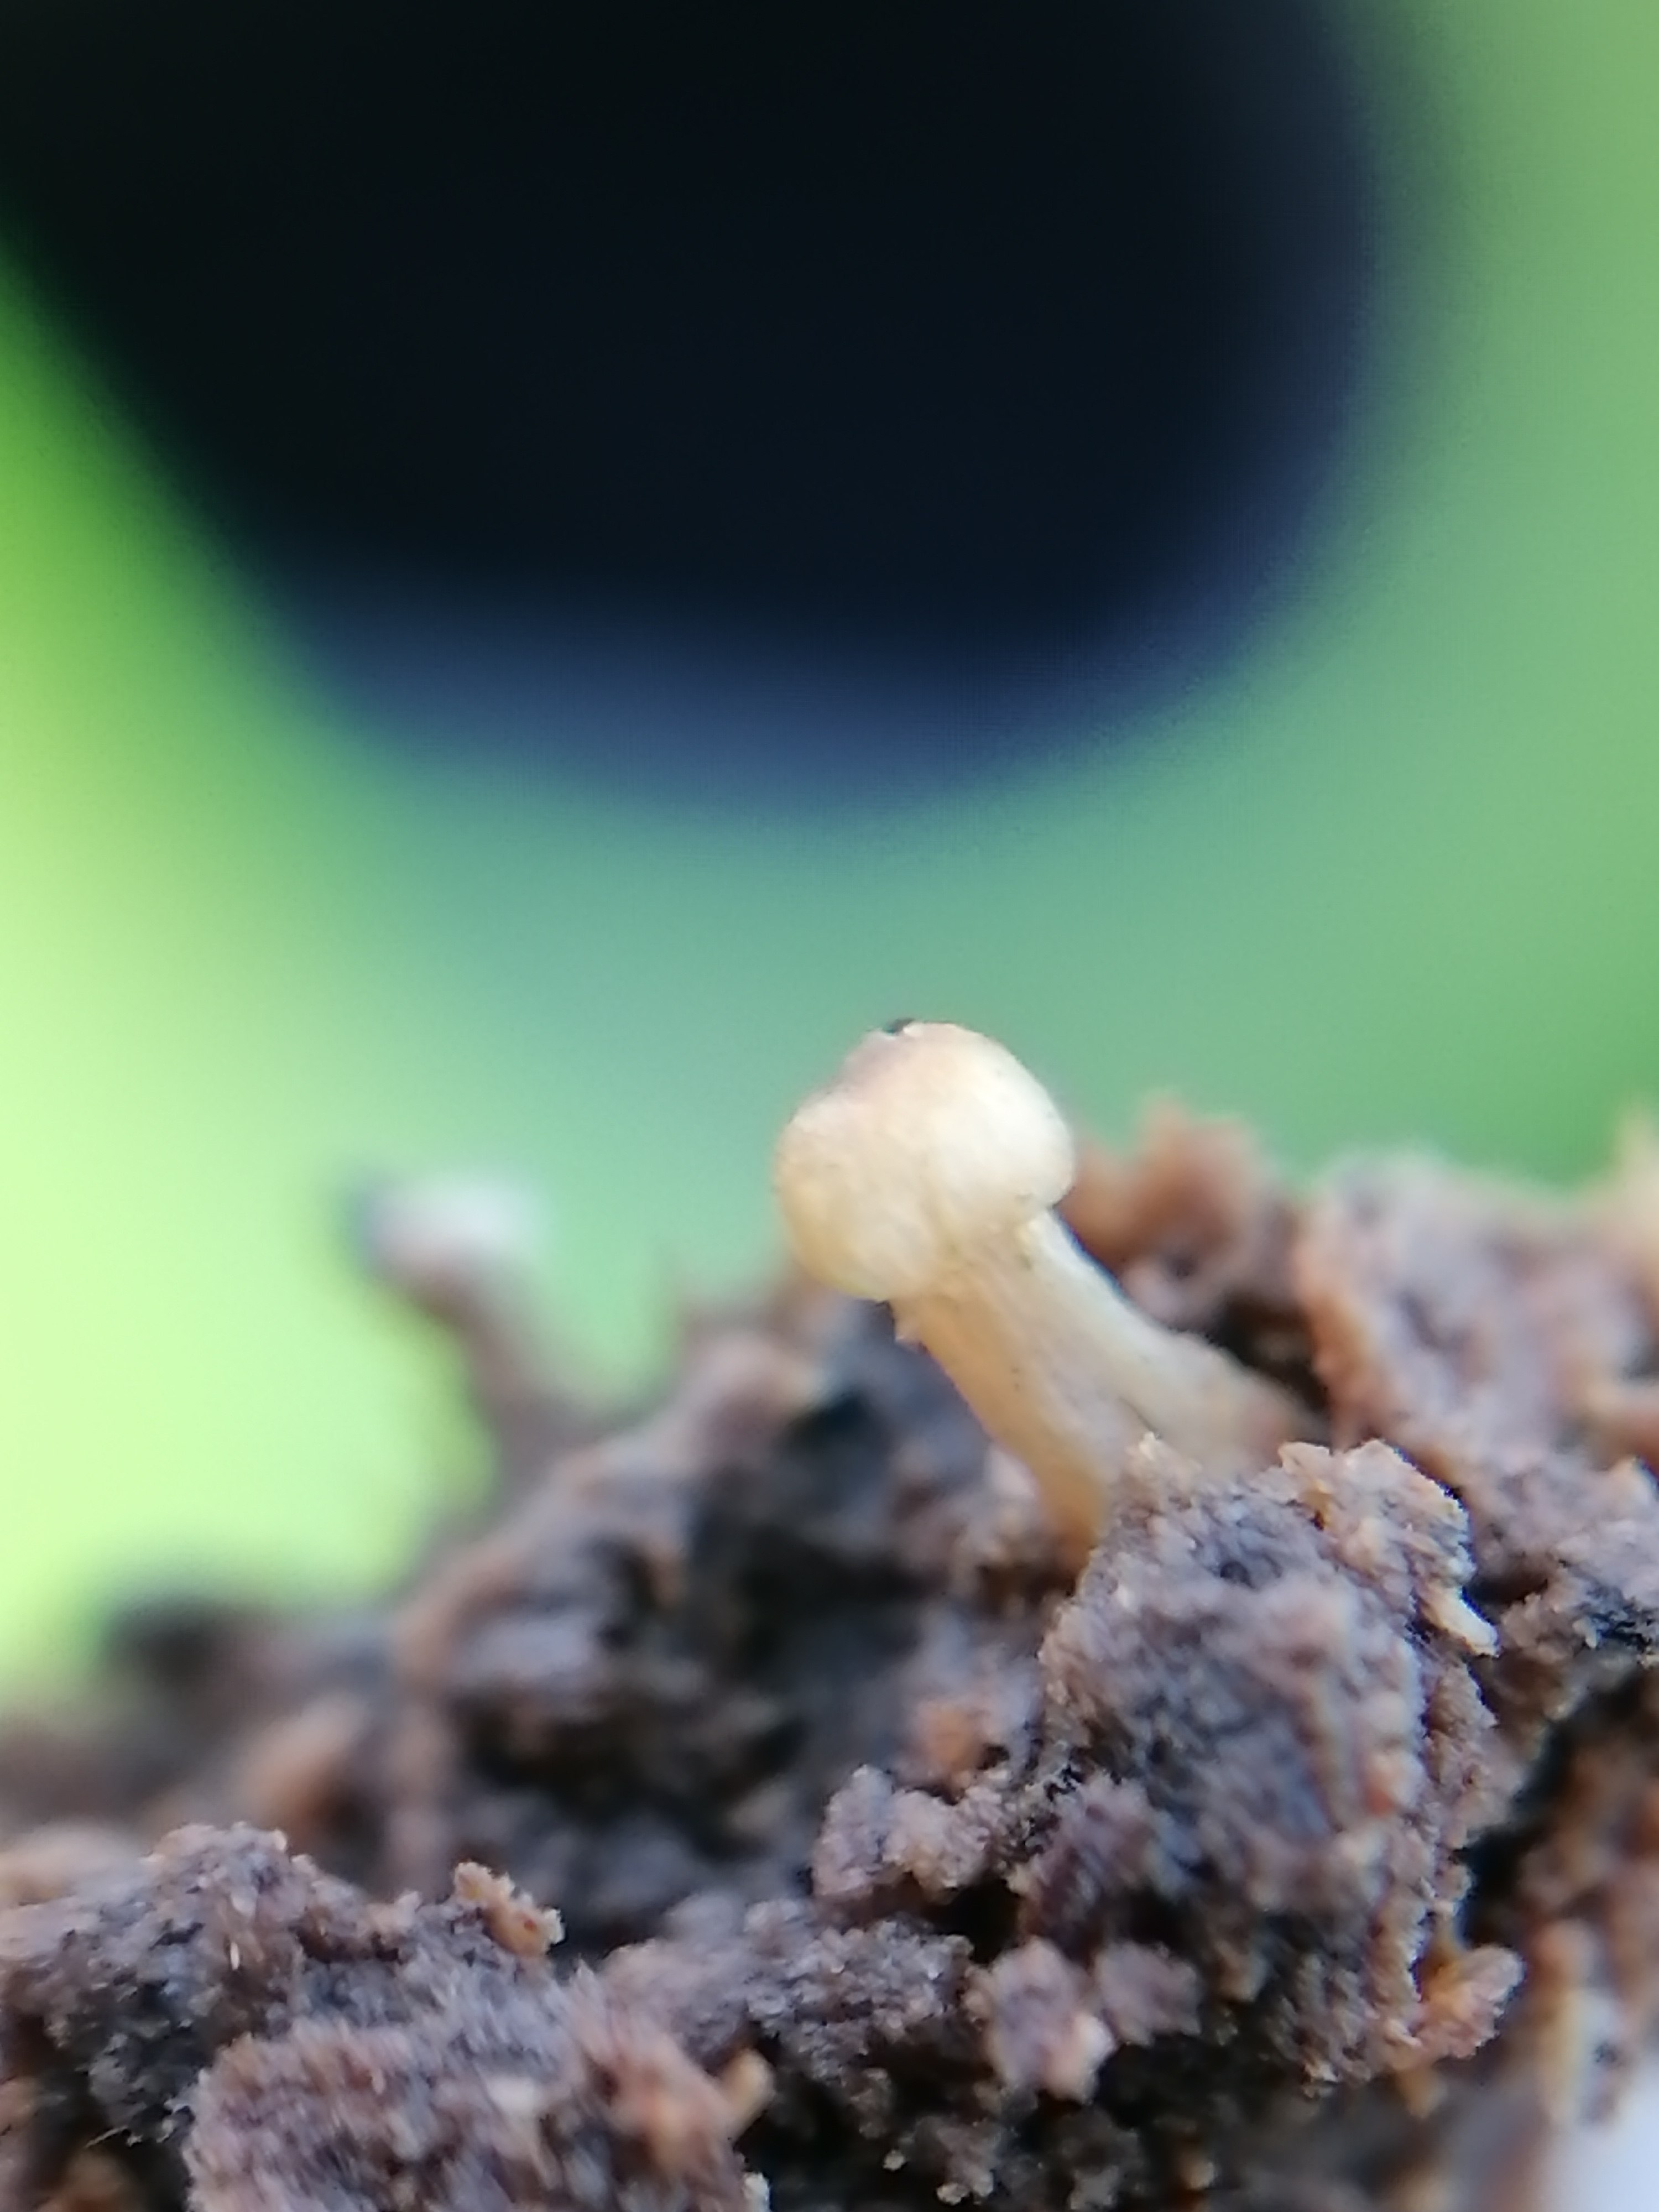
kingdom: Fungi
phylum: Basidiomycota
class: Agaricomycetes
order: Agaricales
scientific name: Agaricales
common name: champignonordenen
